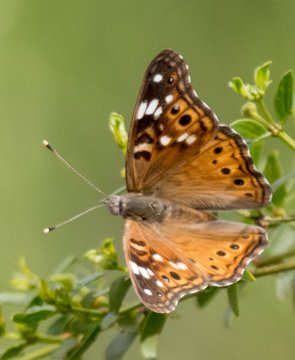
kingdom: Animalia
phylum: Arthropoda
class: Insecta
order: Lepidoptera
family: Nymphalidae
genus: Asterocampa
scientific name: Asterocampa leilia
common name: Empress Leilia
